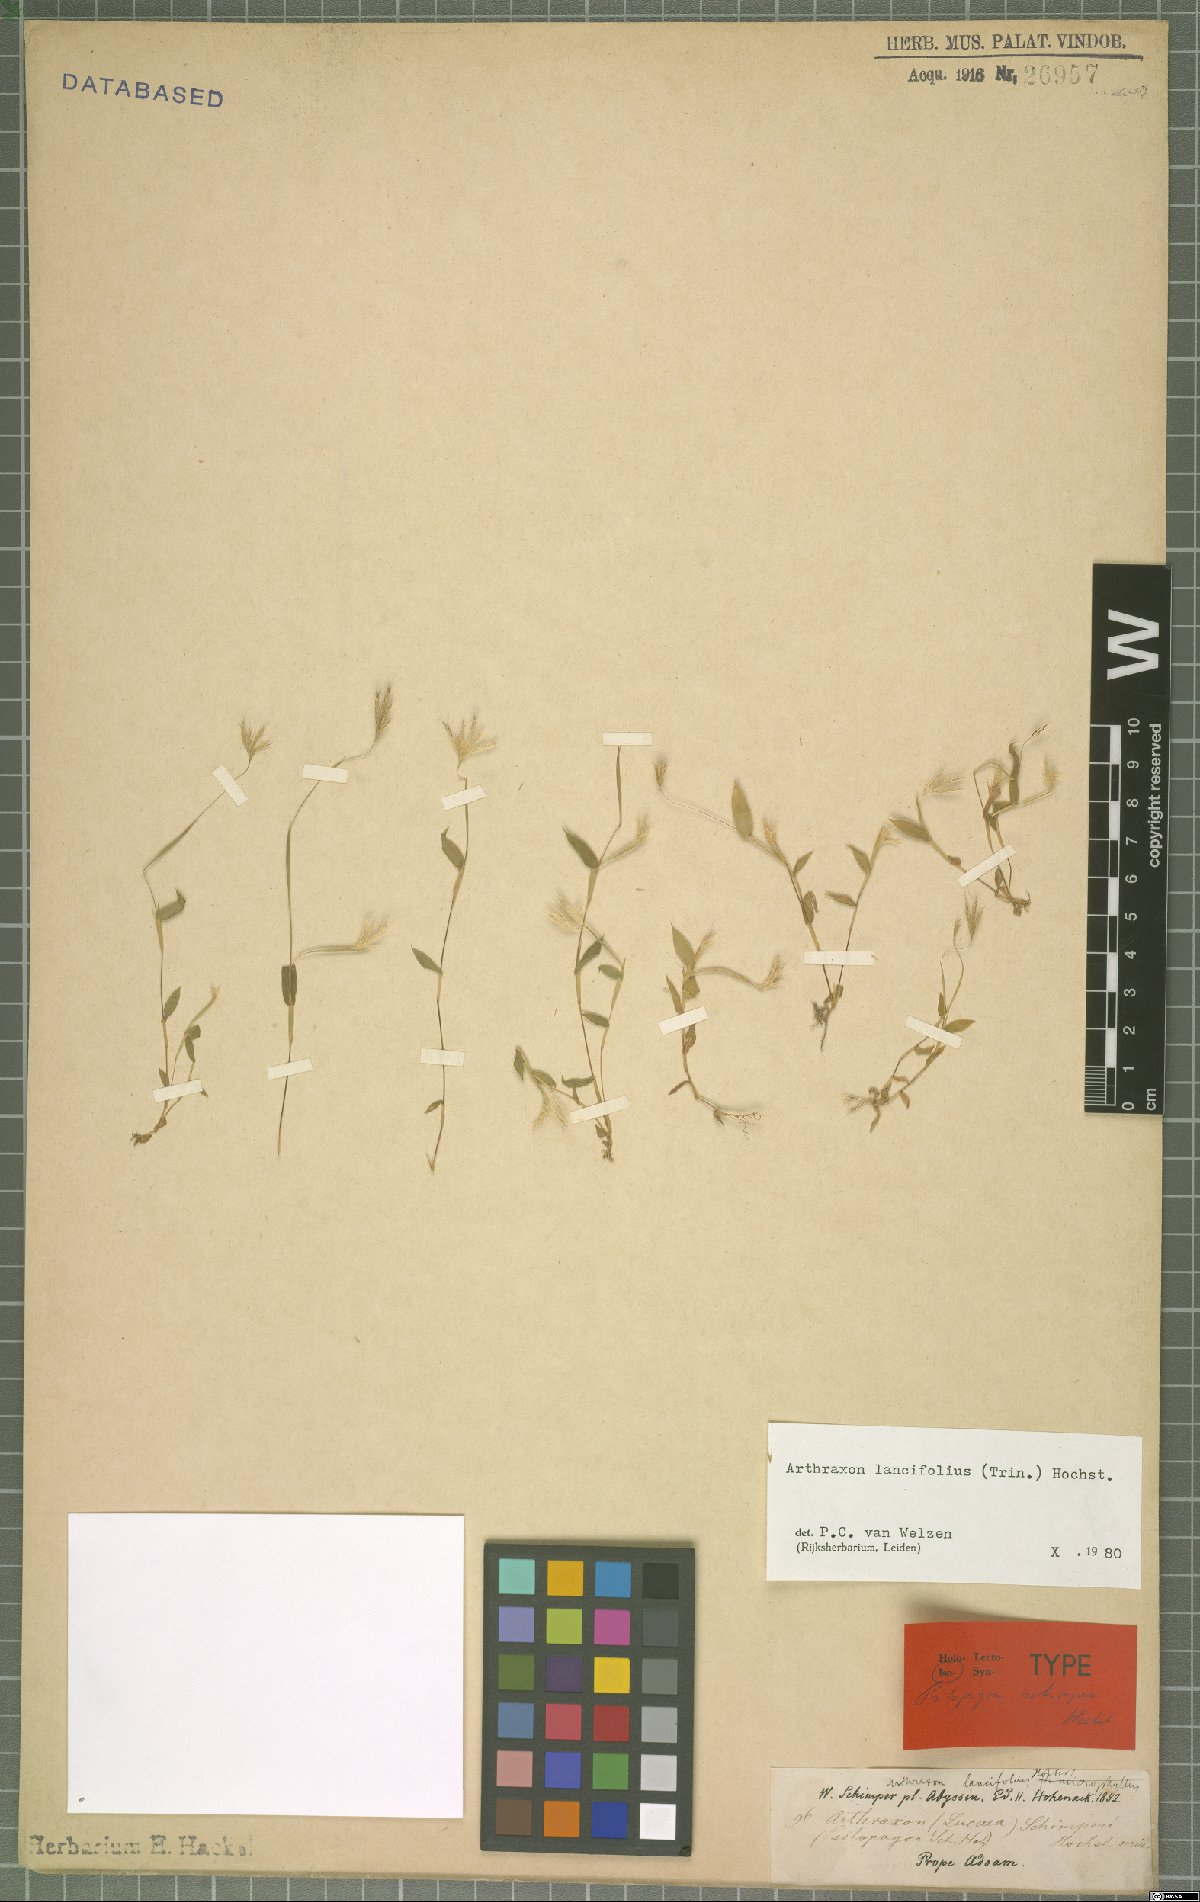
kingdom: Plantae
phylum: Tracheophyta
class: Liliopsida
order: Poales
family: Poaceae
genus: Arthraxon
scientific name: Arthraxon lancifolius
